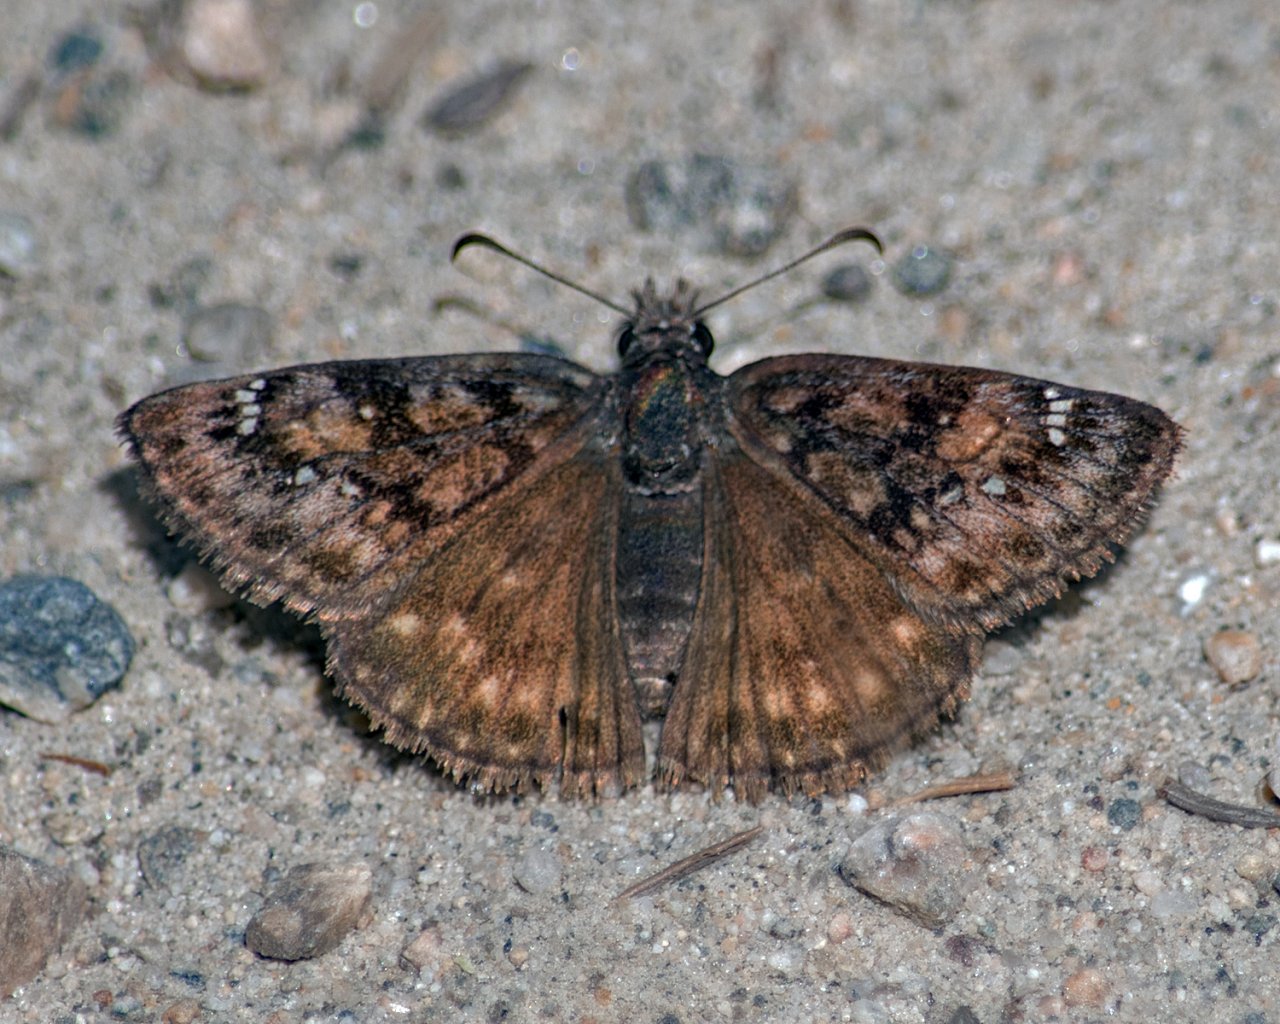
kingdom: Animalia
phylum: Arthropoda
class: Insecta
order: Lepidoptera
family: Hesperiidae
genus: Erynnis
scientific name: Erynnis pacuvius
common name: Pacuvius Duskywing
